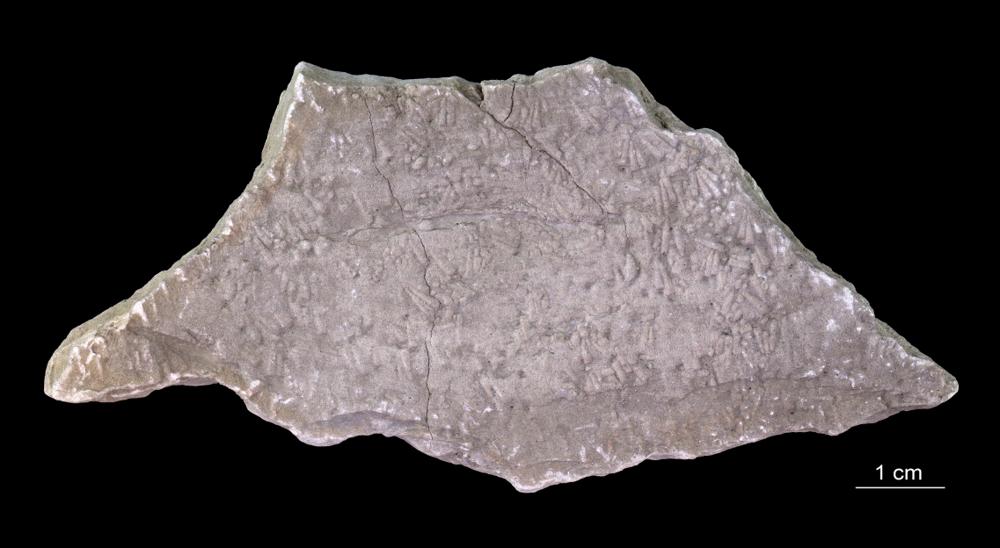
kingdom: Animalia
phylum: Annelida
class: Polychaeta
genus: Volborthella
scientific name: Volborthella tenuis
